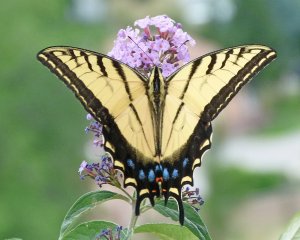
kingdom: Animalia
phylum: Arthropoda
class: Insecta
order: Lepidoptera
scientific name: Lepidoptera
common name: Butterflies
